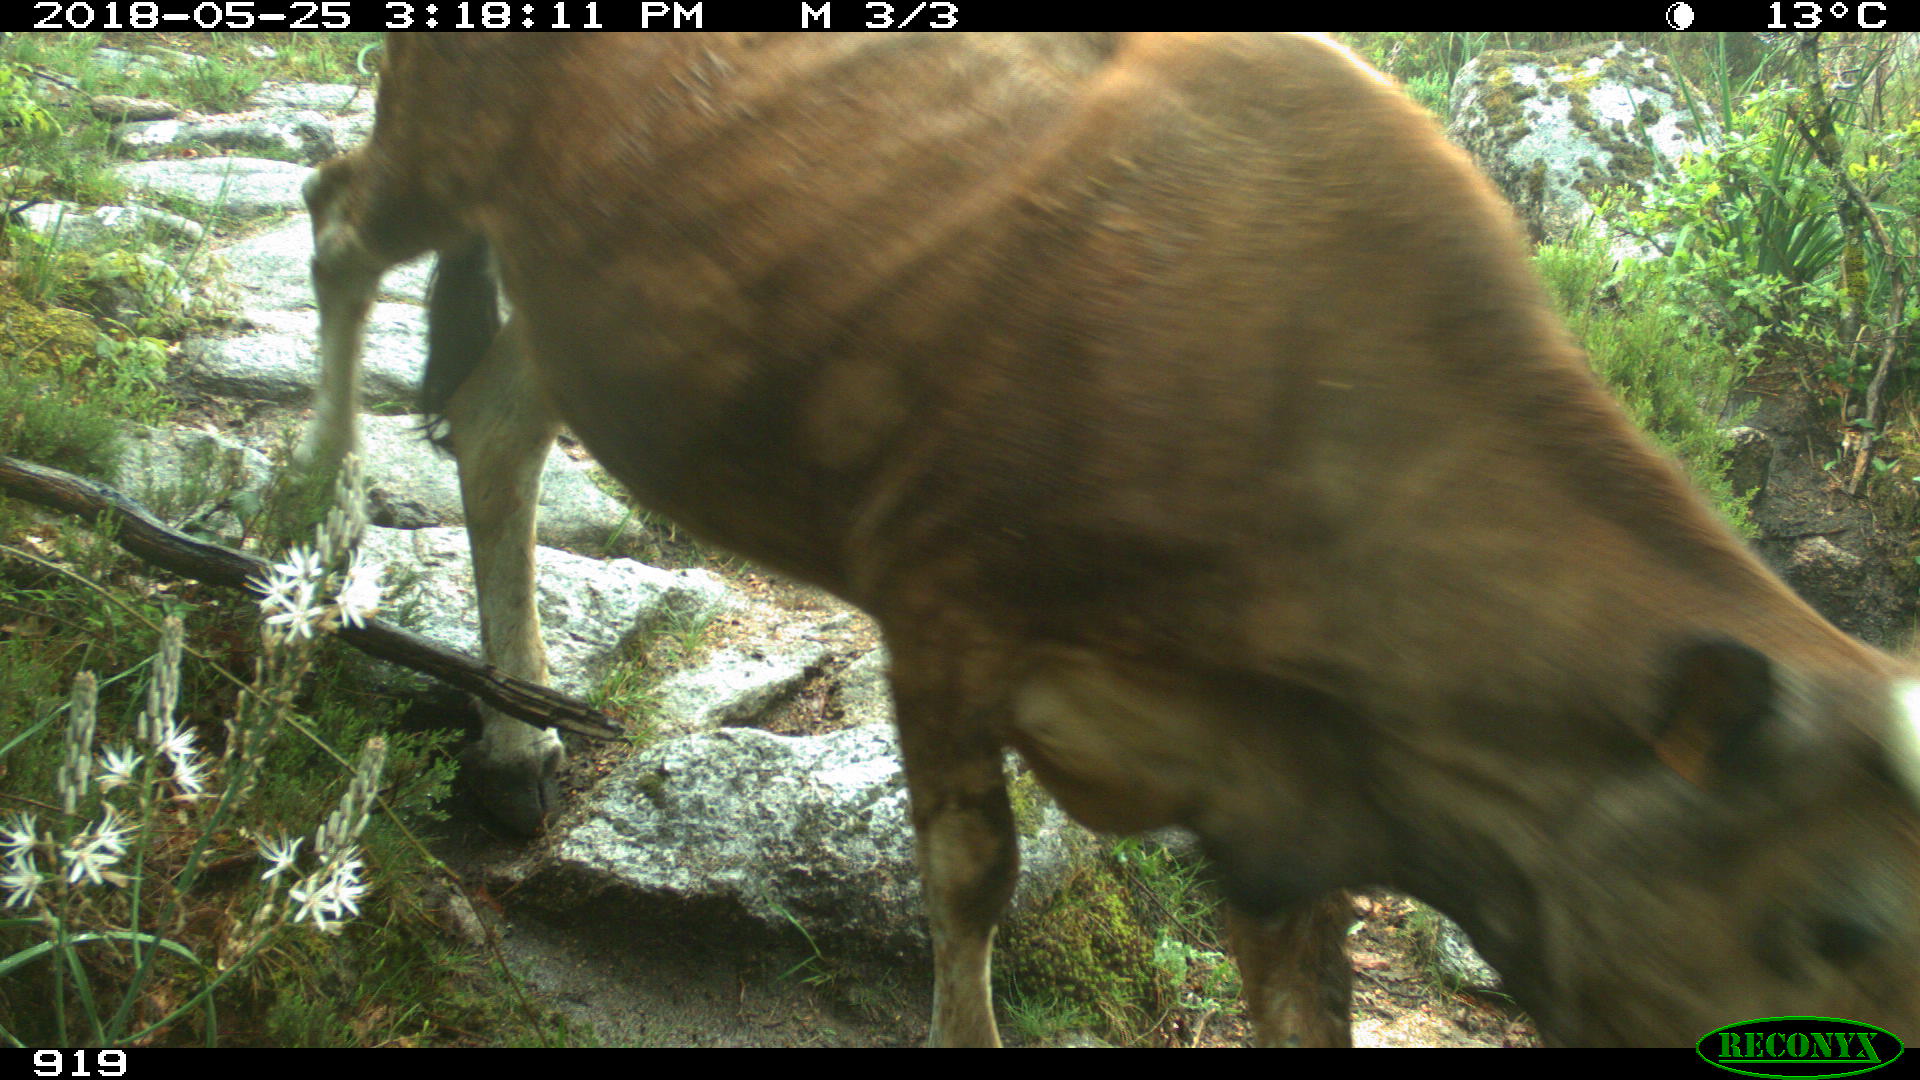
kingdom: Animalia
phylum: Chordata
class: Mammalia
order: Artiodactyla
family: Bovidae
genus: Bos
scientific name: Bos taurus
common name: Domesticated cattle
